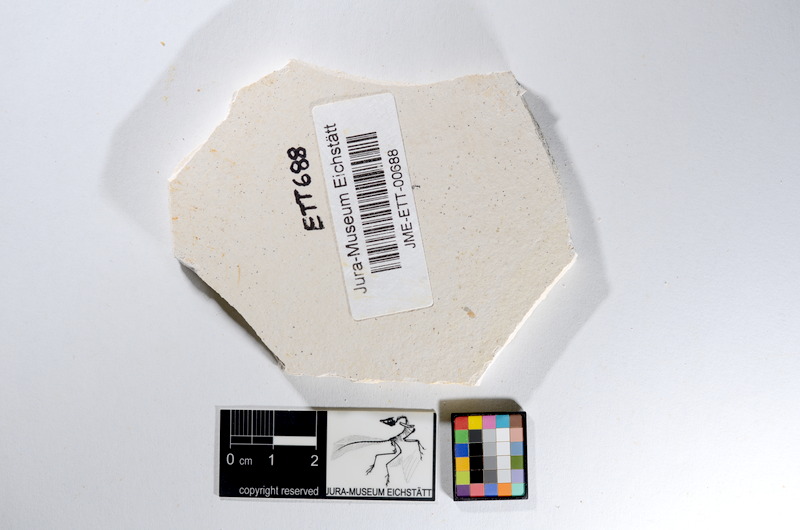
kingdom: Animalia
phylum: Chordata
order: Salmoniformes
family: Orthogonikleithridae
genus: Orthogonikleithrus
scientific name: Orthogonikleithrus hoelli
